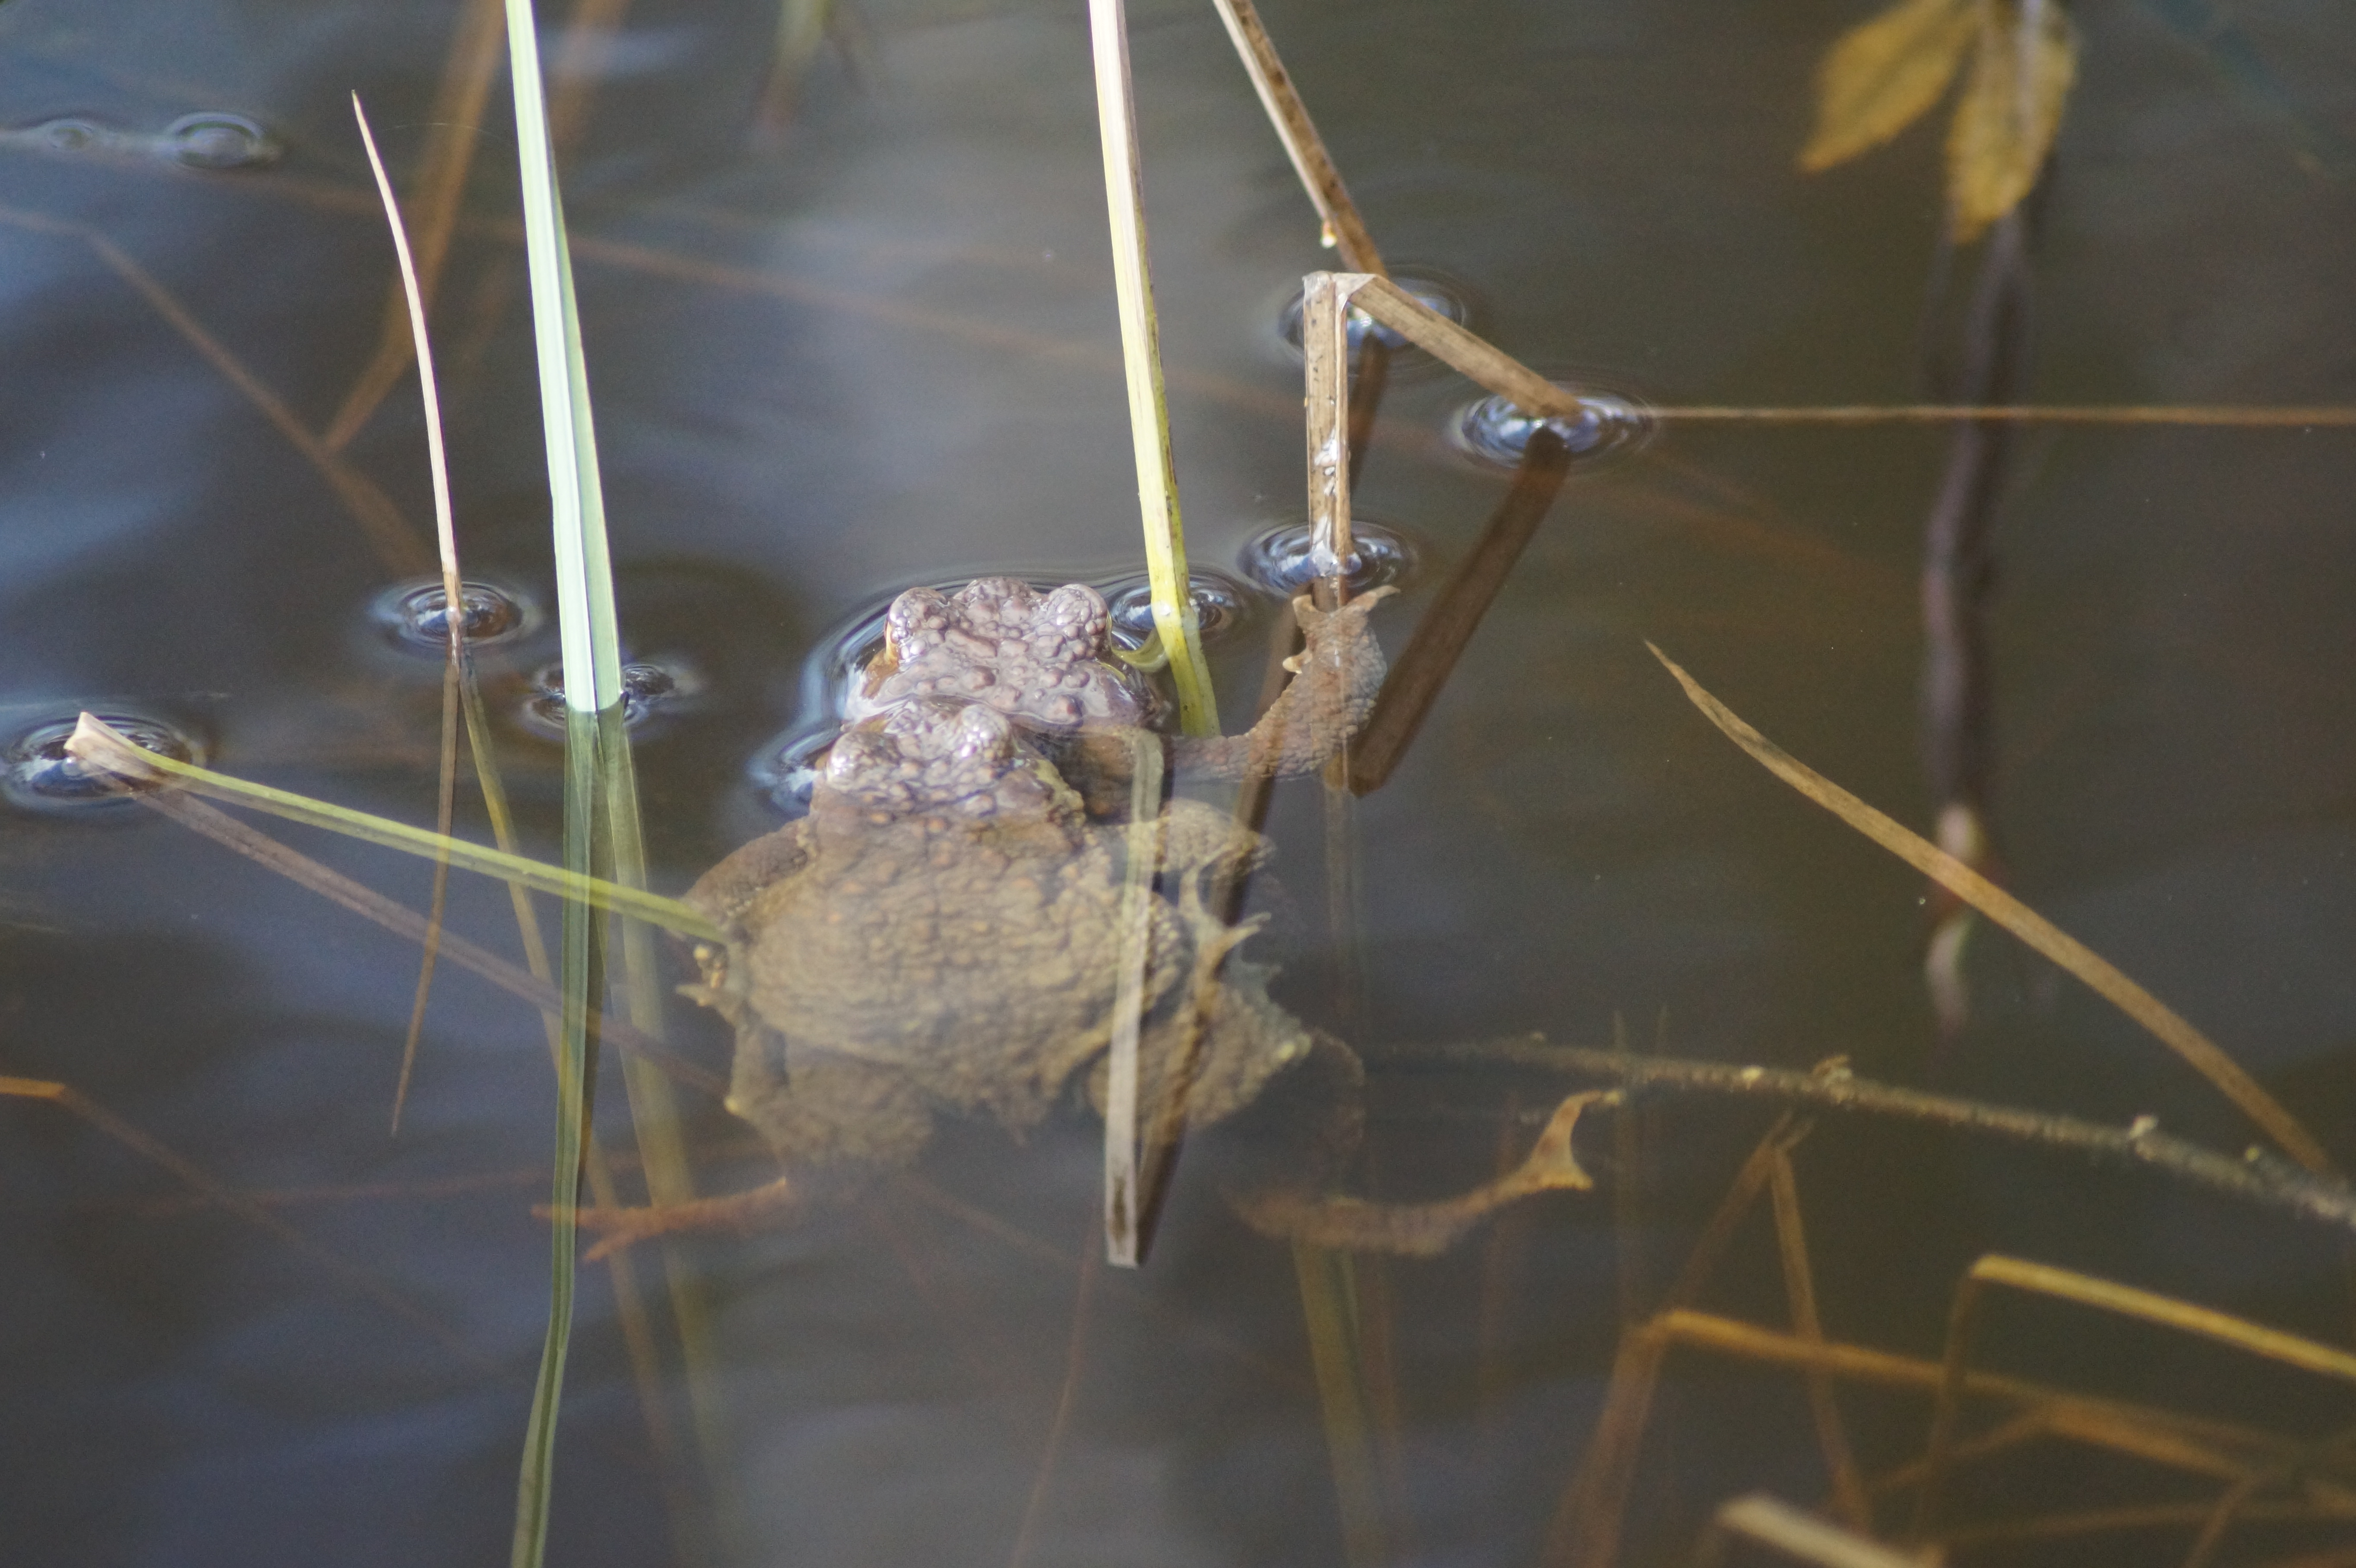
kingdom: Animalia
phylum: Chordata
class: Amphibia
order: Anura
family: Bufonidae
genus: Bufo
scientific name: Bufo bufo
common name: Common toad
